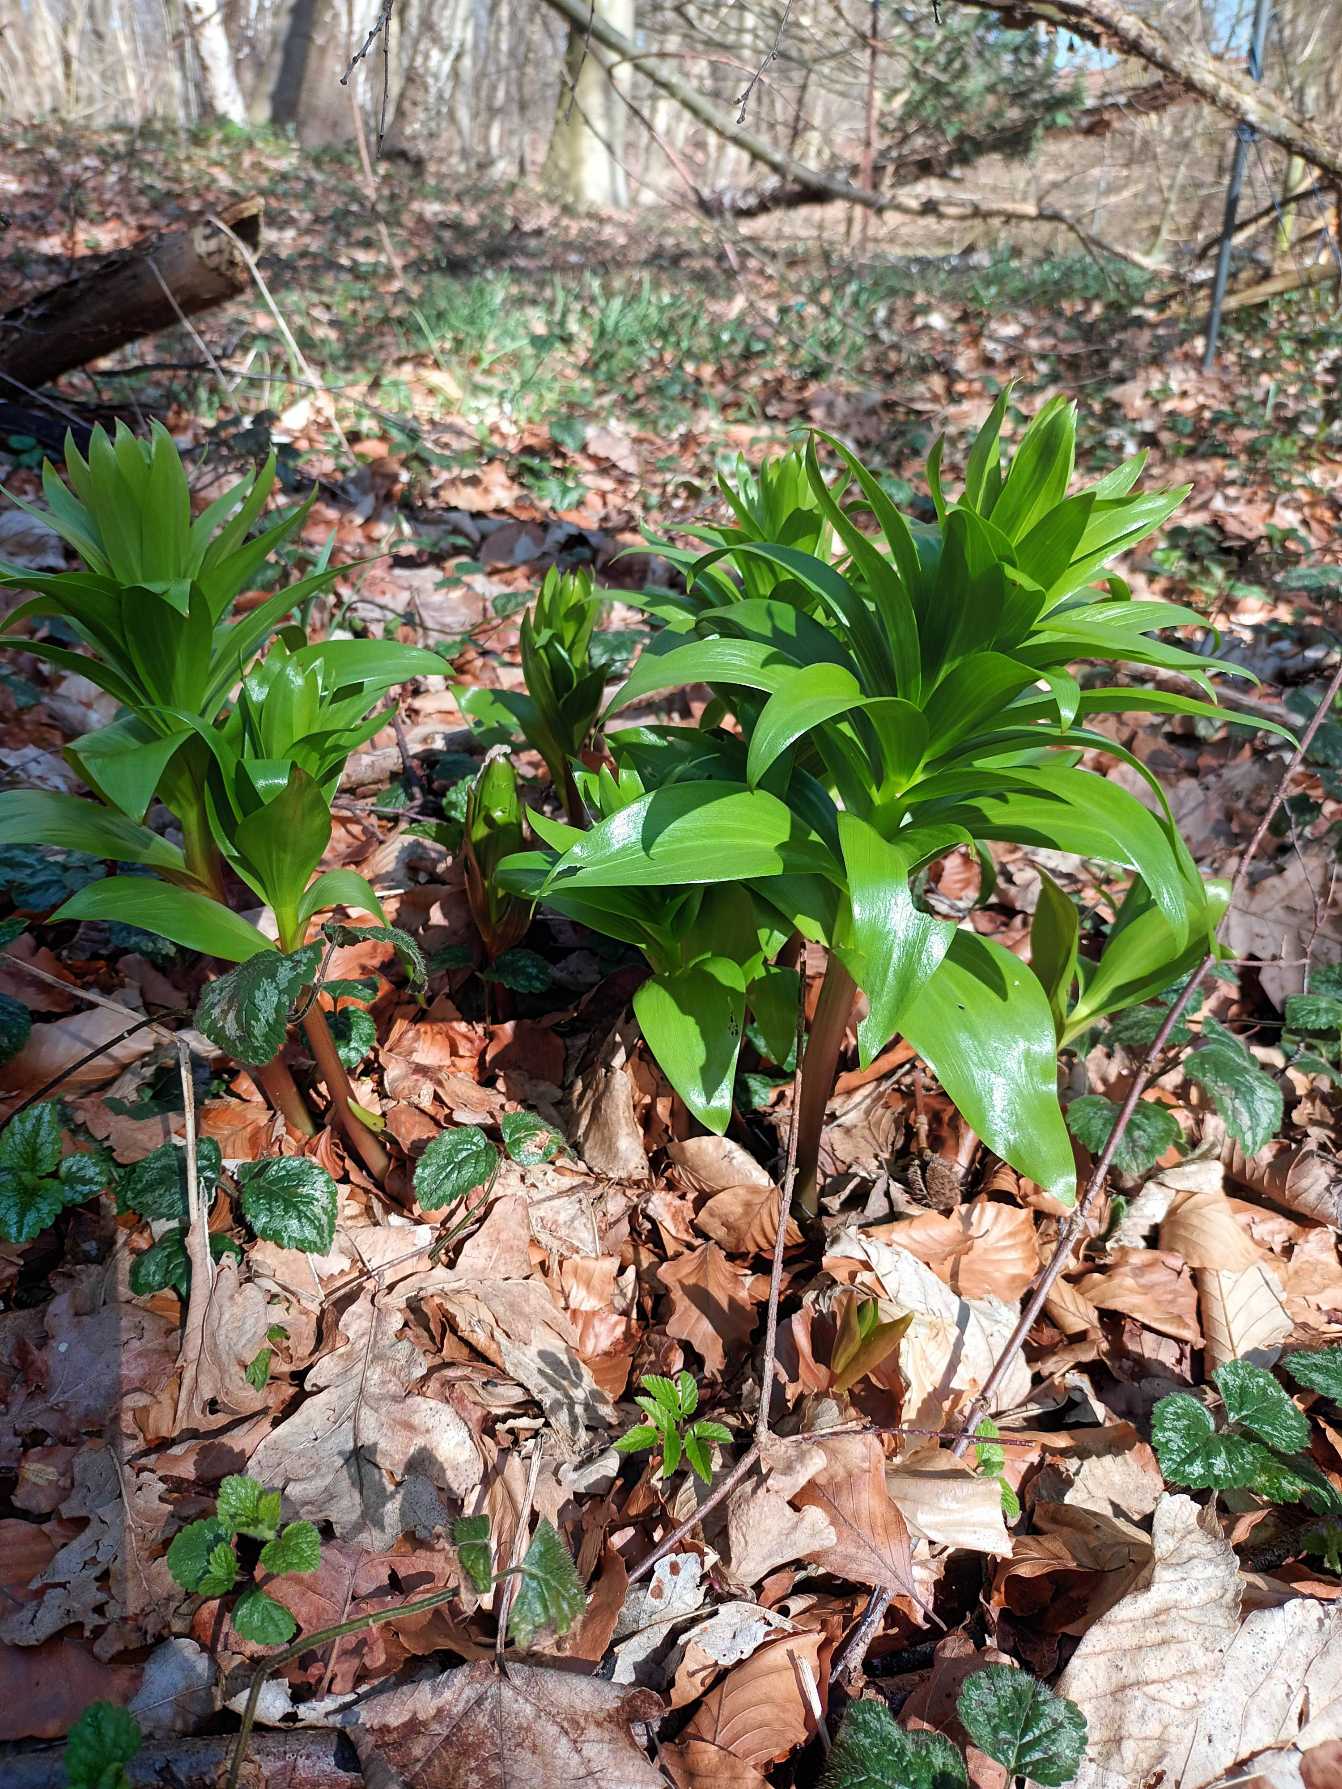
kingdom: Plantae
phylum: Tracheophyta
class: Liliopsida
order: Liliales
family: Liliaceae
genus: Fritillaria
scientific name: Fritillaria imperialis
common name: Kejserkrone
